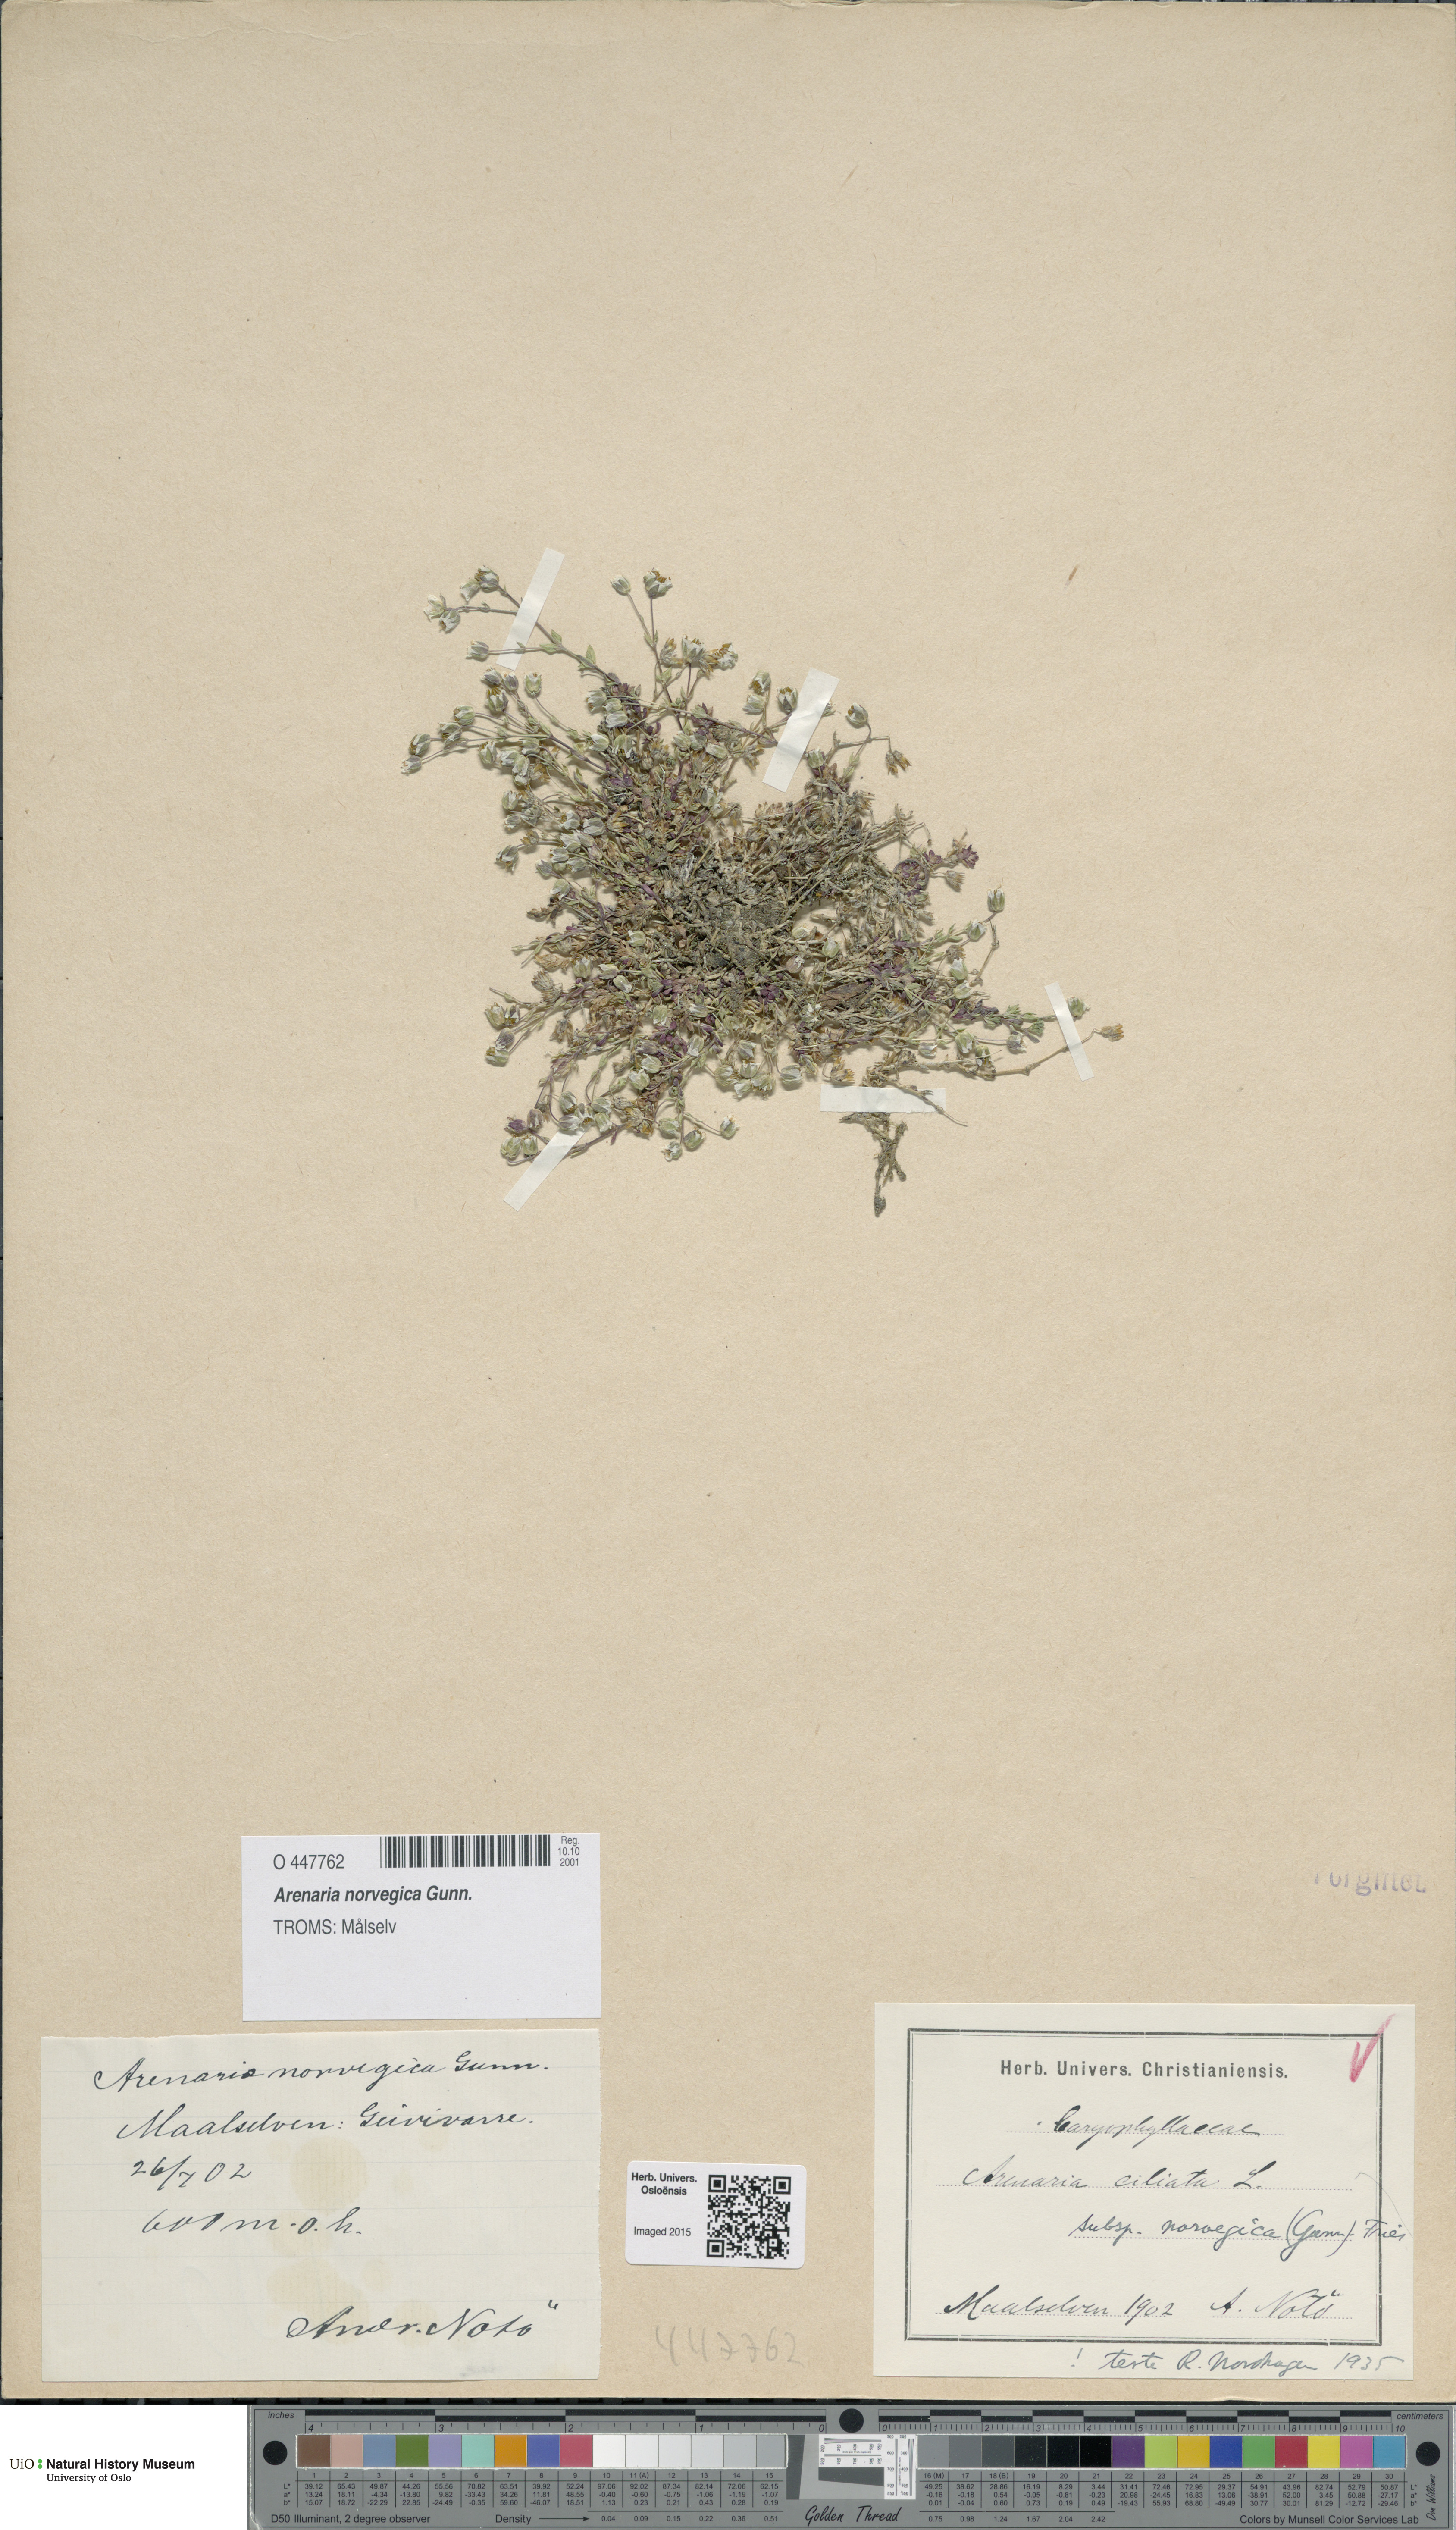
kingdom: Plantae
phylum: Tracheophyta
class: Magnoliopsida
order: Caryophyllales
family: Caryophyllaceae
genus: Arenaria
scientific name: Arenaria norvegica
